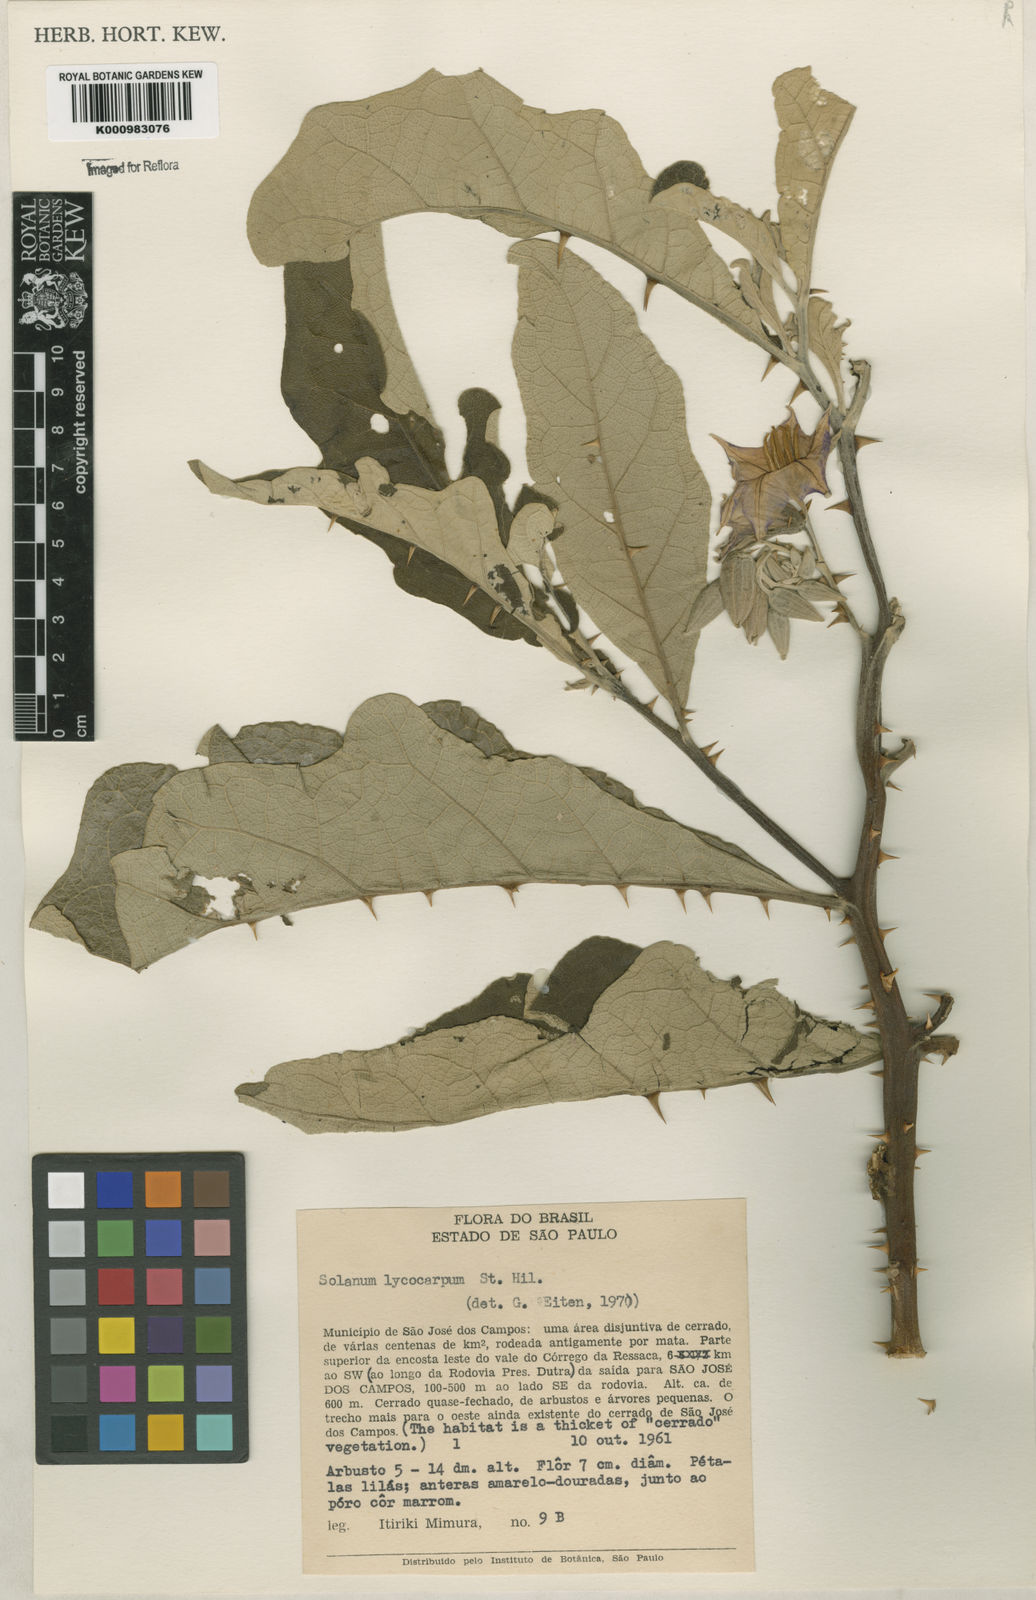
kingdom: Plantae
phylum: Tracheophyta
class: Magnoliopsida
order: Solanales
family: Solanaceae
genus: Solanum
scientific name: Solanum lycocarpum
